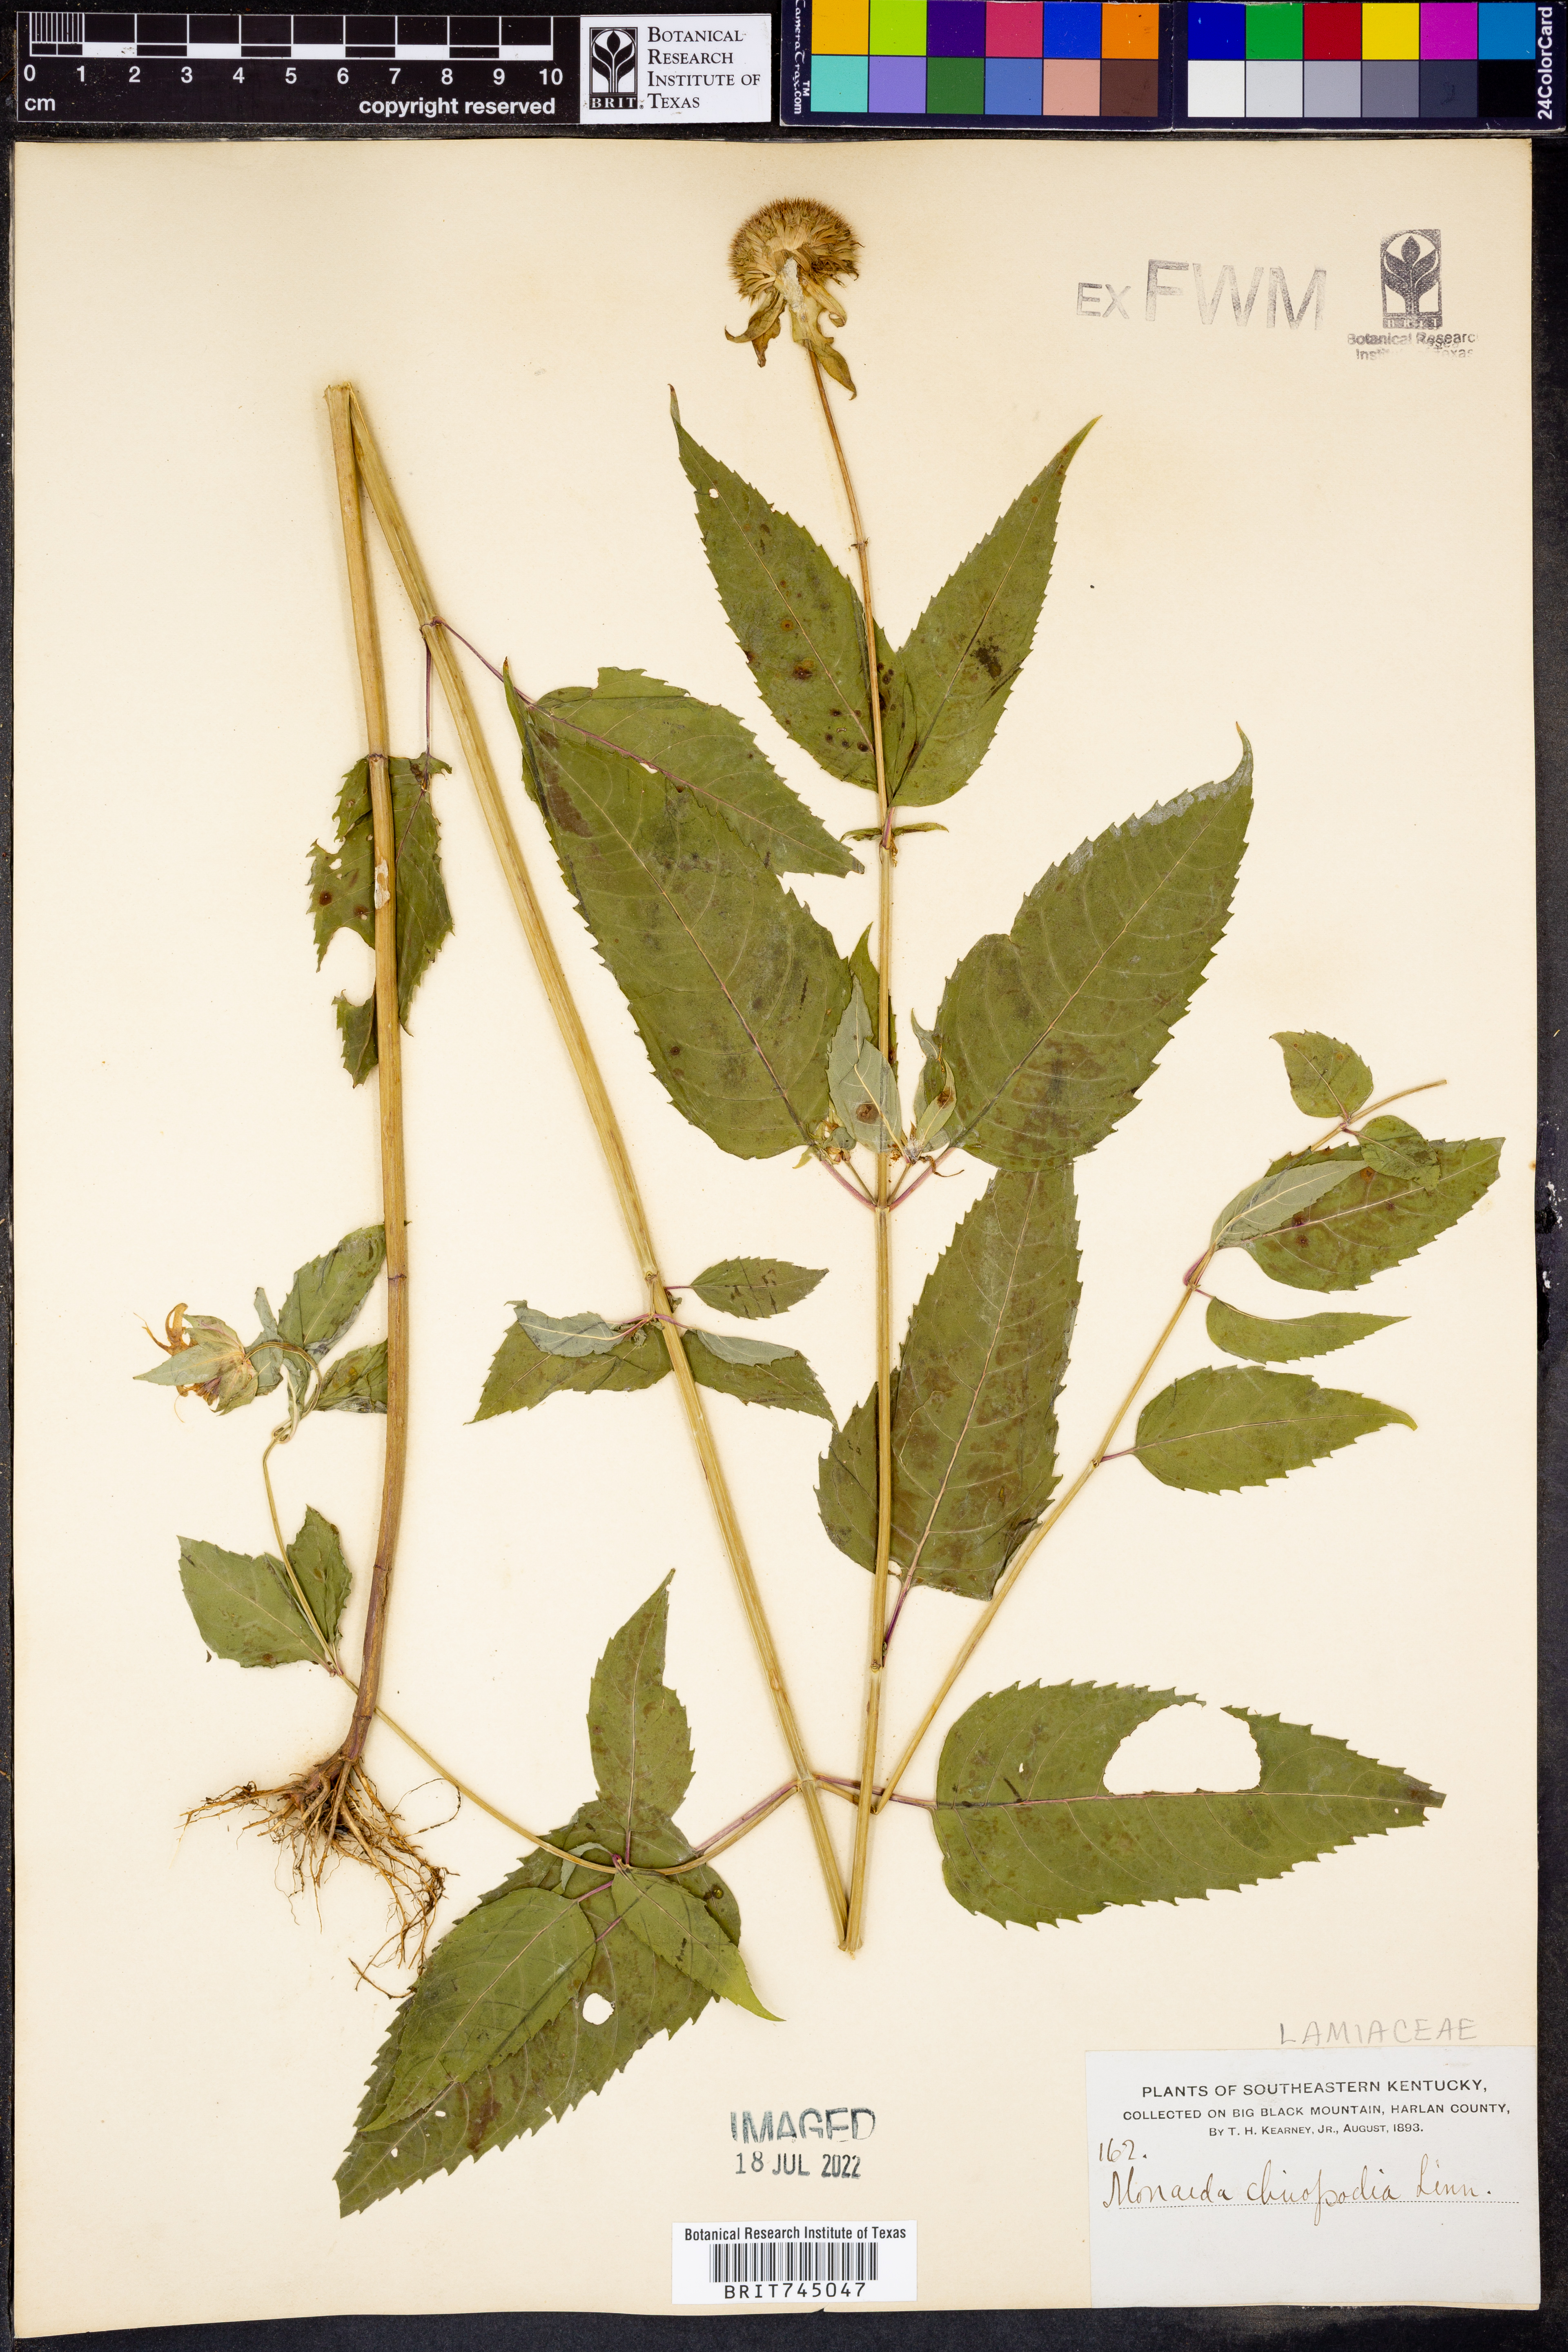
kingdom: Plantae
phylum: Tracheophyta
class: Magnoliopsida
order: Lamiales
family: Lamiaceae
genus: Monarda
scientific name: Monarda clinopodia
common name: Basil beebalm
